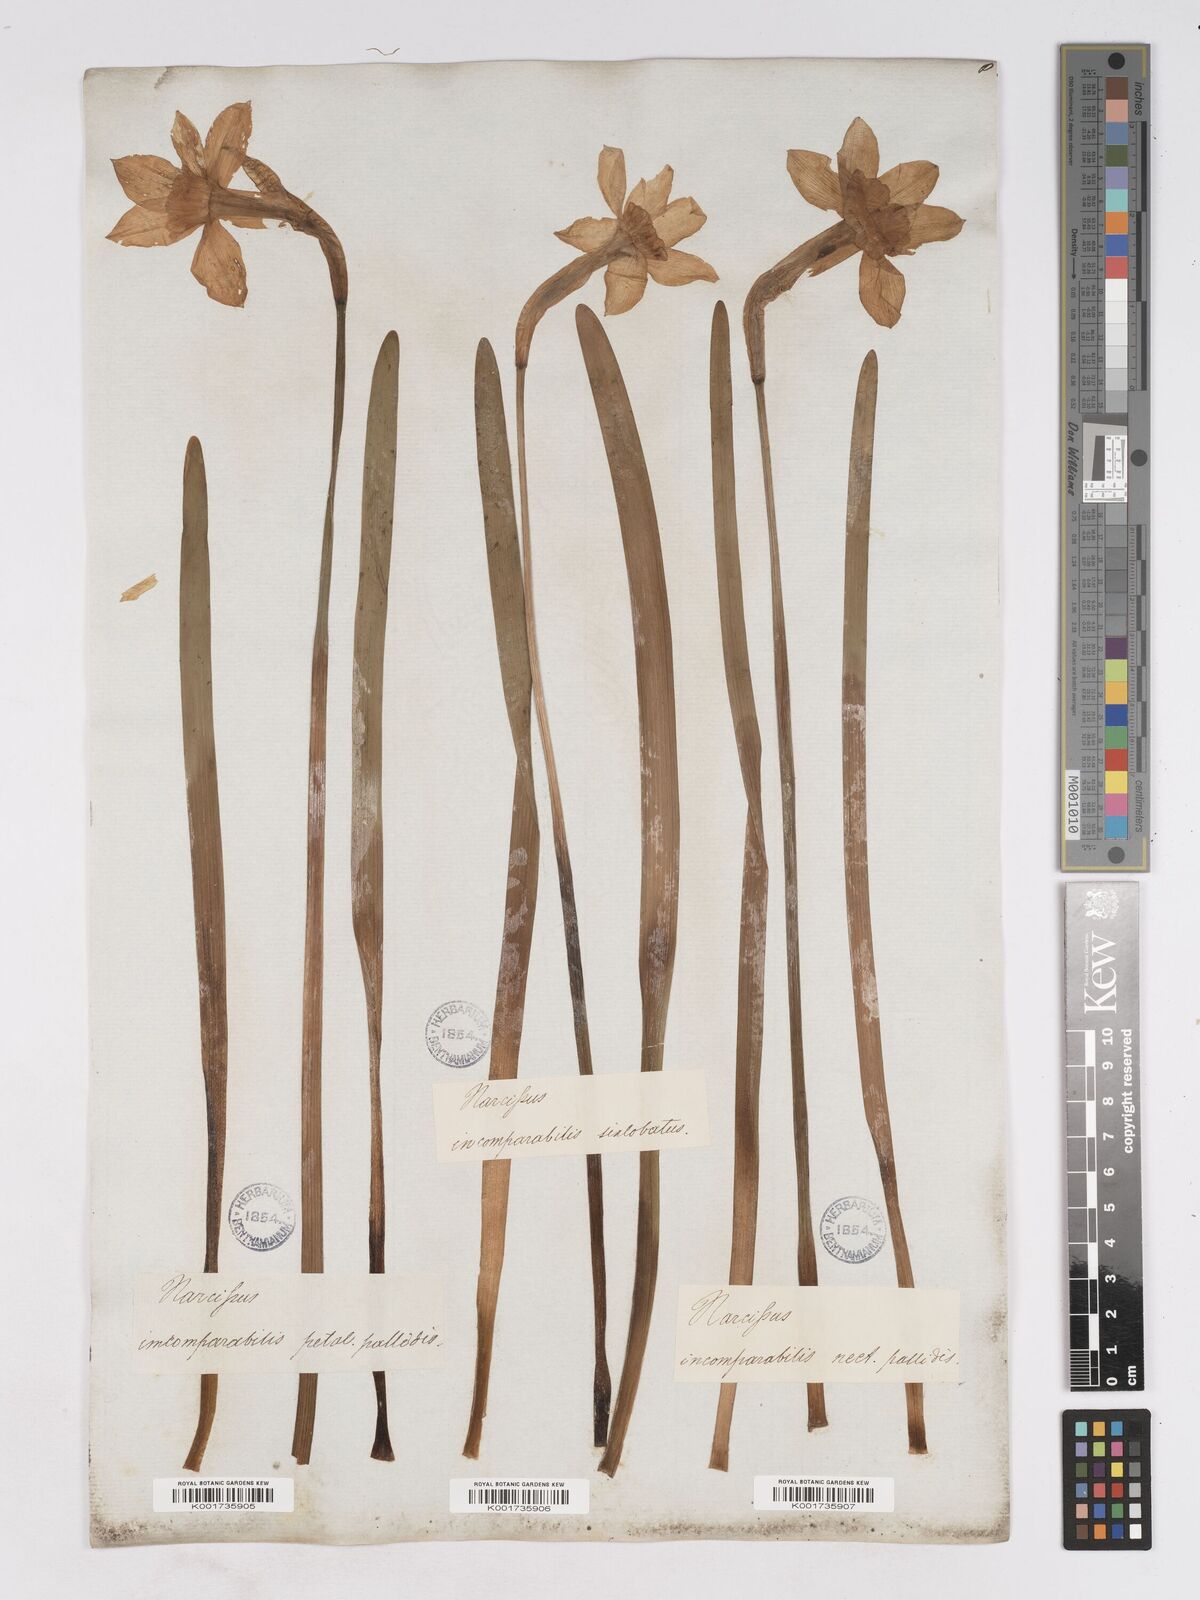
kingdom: Plantae
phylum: Tracheophyta
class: Liliopsida
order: Asparagales
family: Amaryllidaceae
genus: Narcissus
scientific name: Narcissus incomparabilis
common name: Nonesuch daffodil
